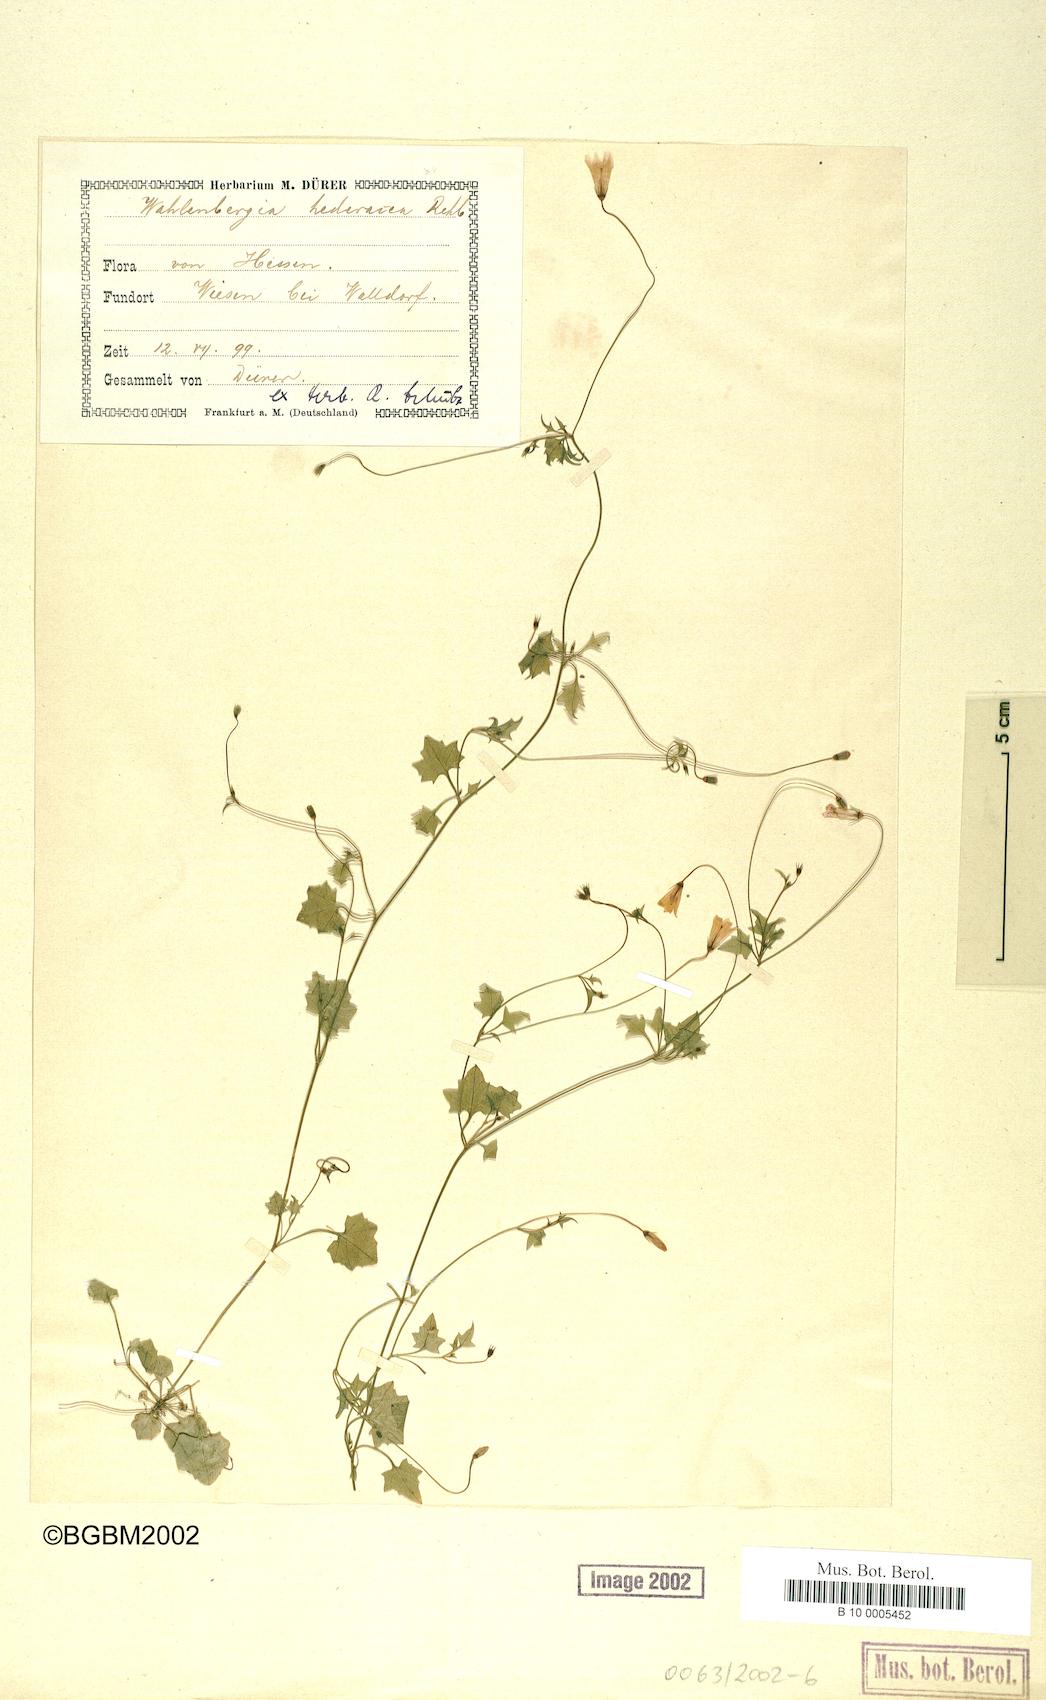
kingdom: Plantae
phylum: Tracheophyta
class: Magnoliopsida
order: Asterales
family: Campanulaceae
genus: Hesperocodon
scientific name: Hesperocodon hederaceus
